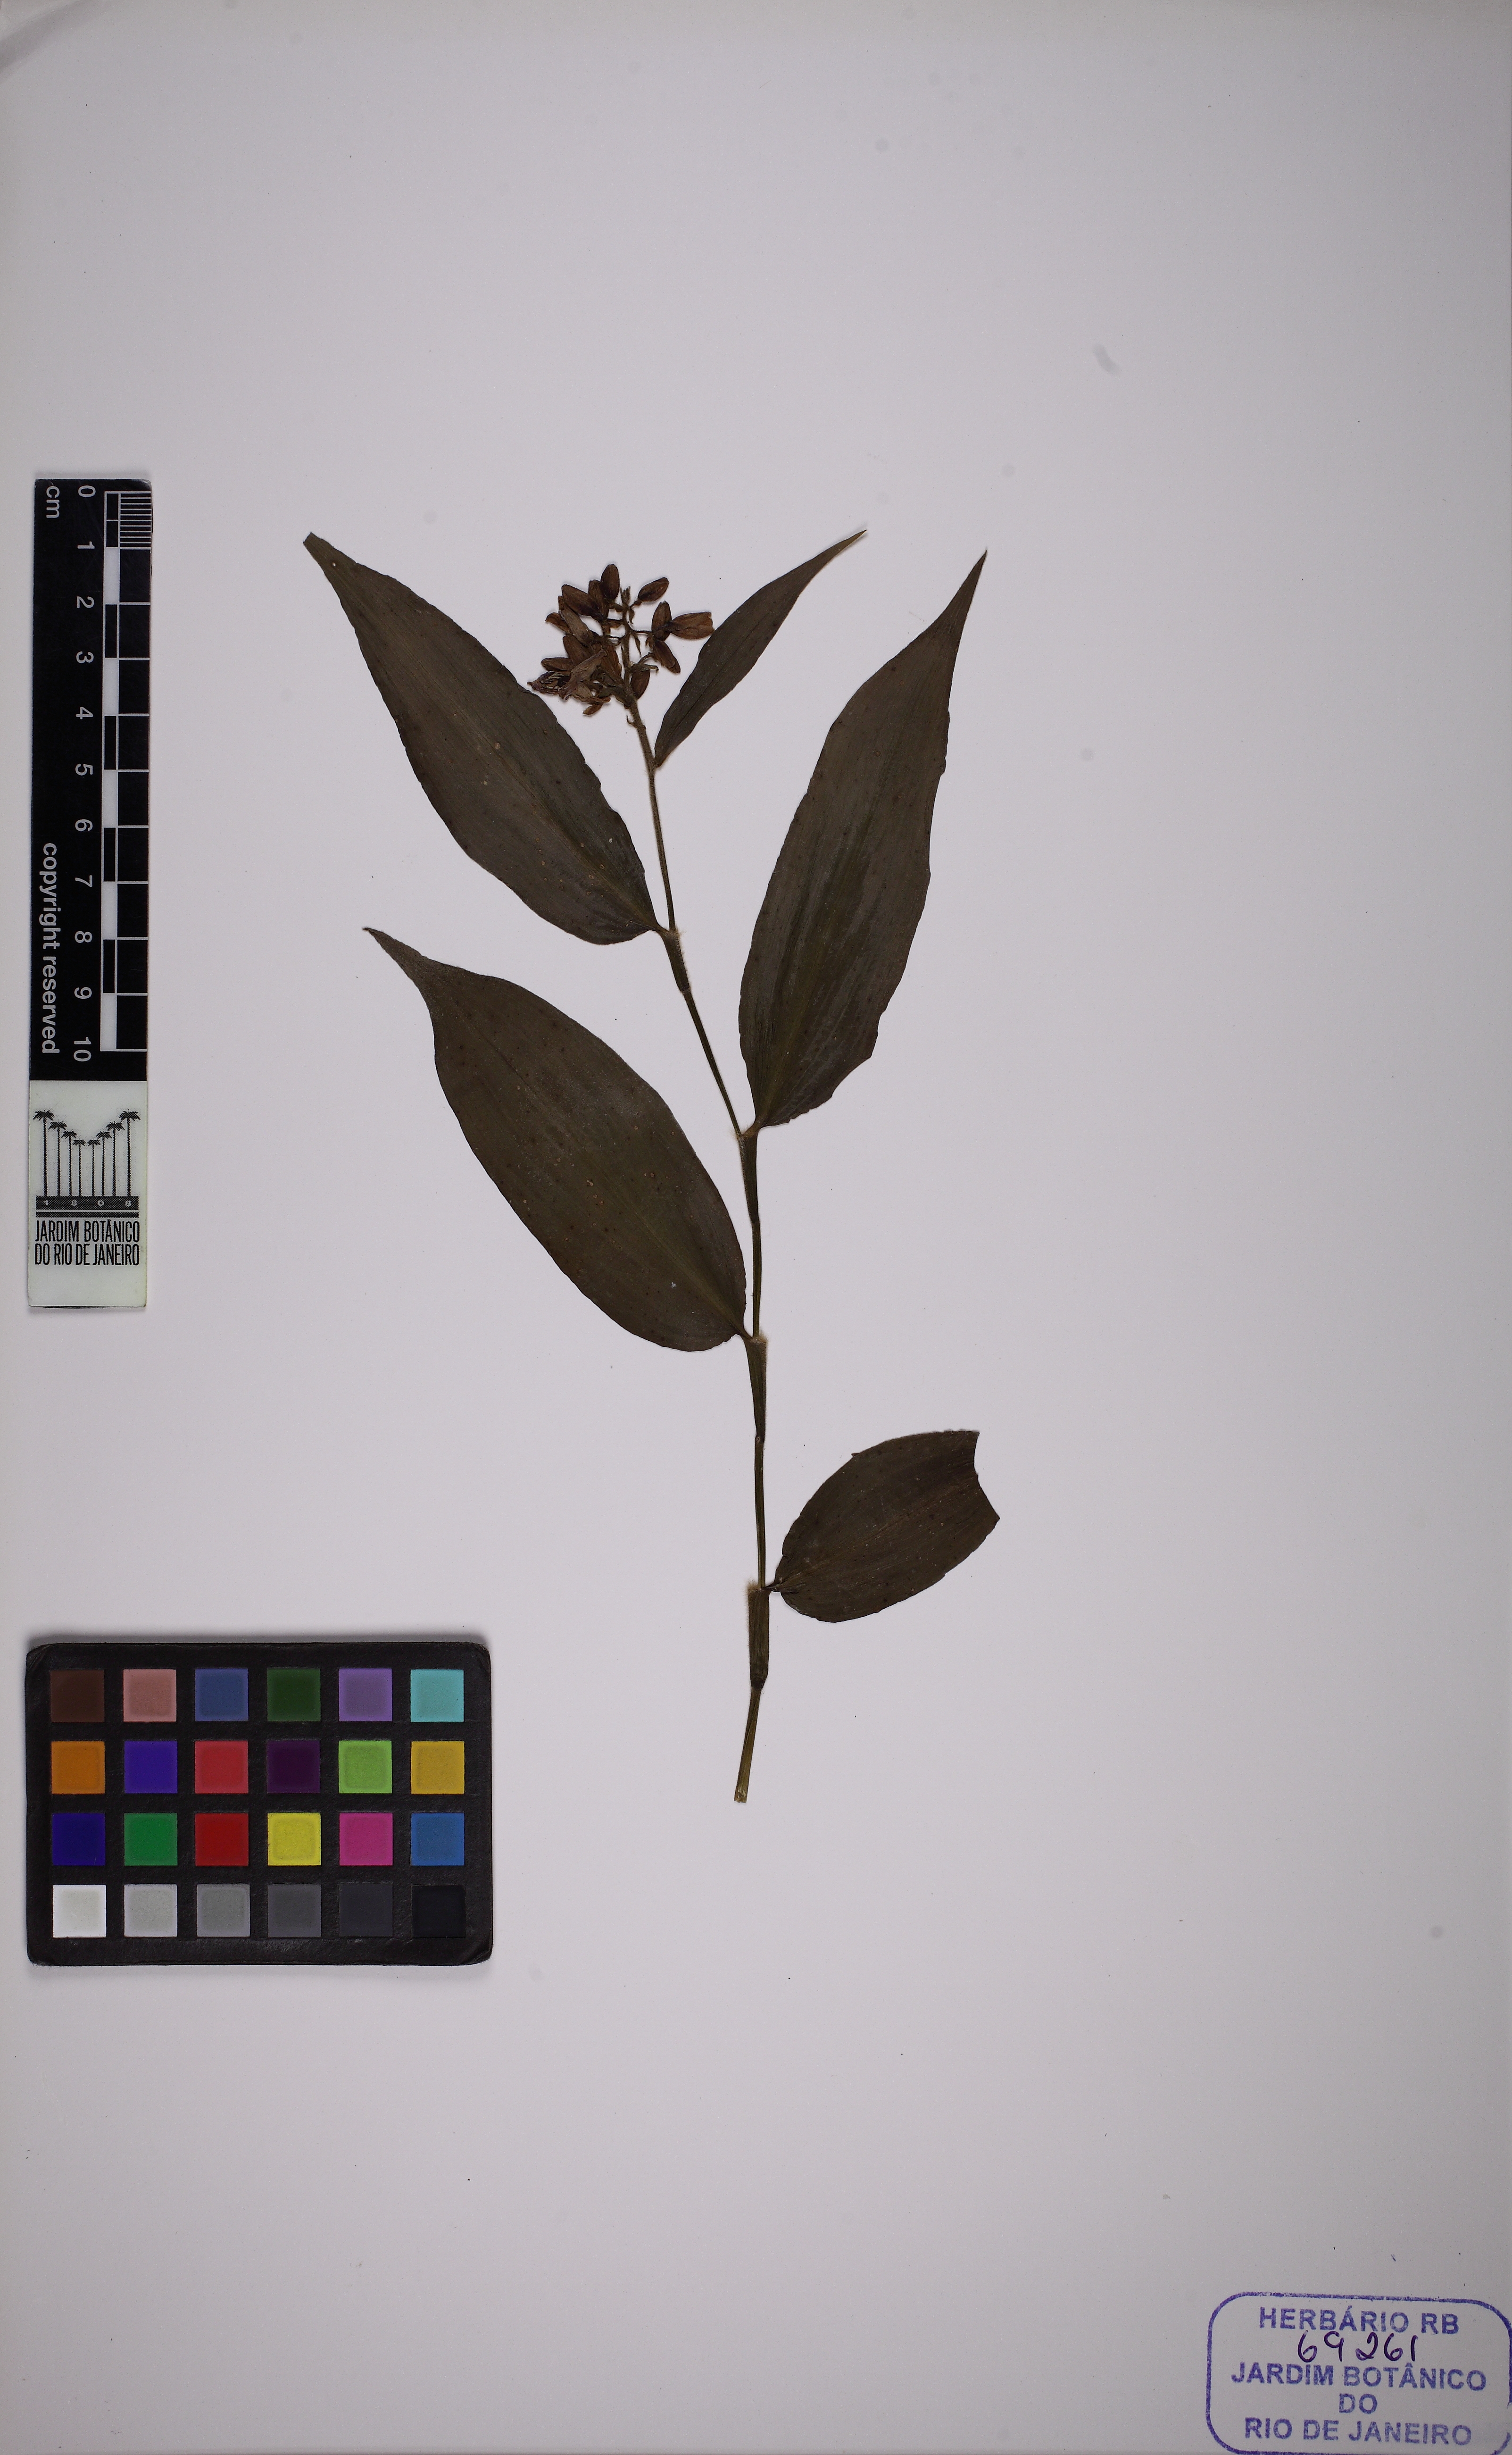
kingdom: Plantae
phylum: Tracheophyta
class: Liliopsida
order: Commelinales
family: Commelinaceae
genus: Dichorisandra
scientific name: Dichorisandra hexandra
